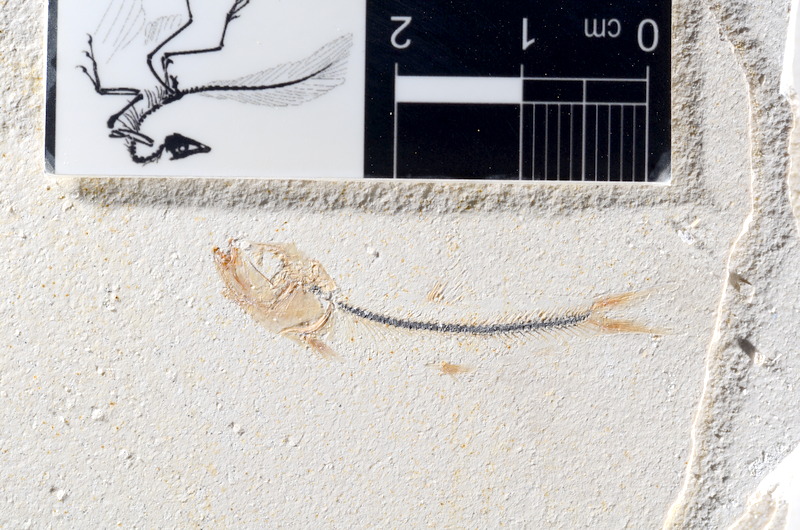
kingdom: Animalia
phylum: Chordata
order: Salmoniformes
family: Orthogonikleithridae
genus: Orthogonikleithrus
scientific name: Orthogonikleithrus hoelli
